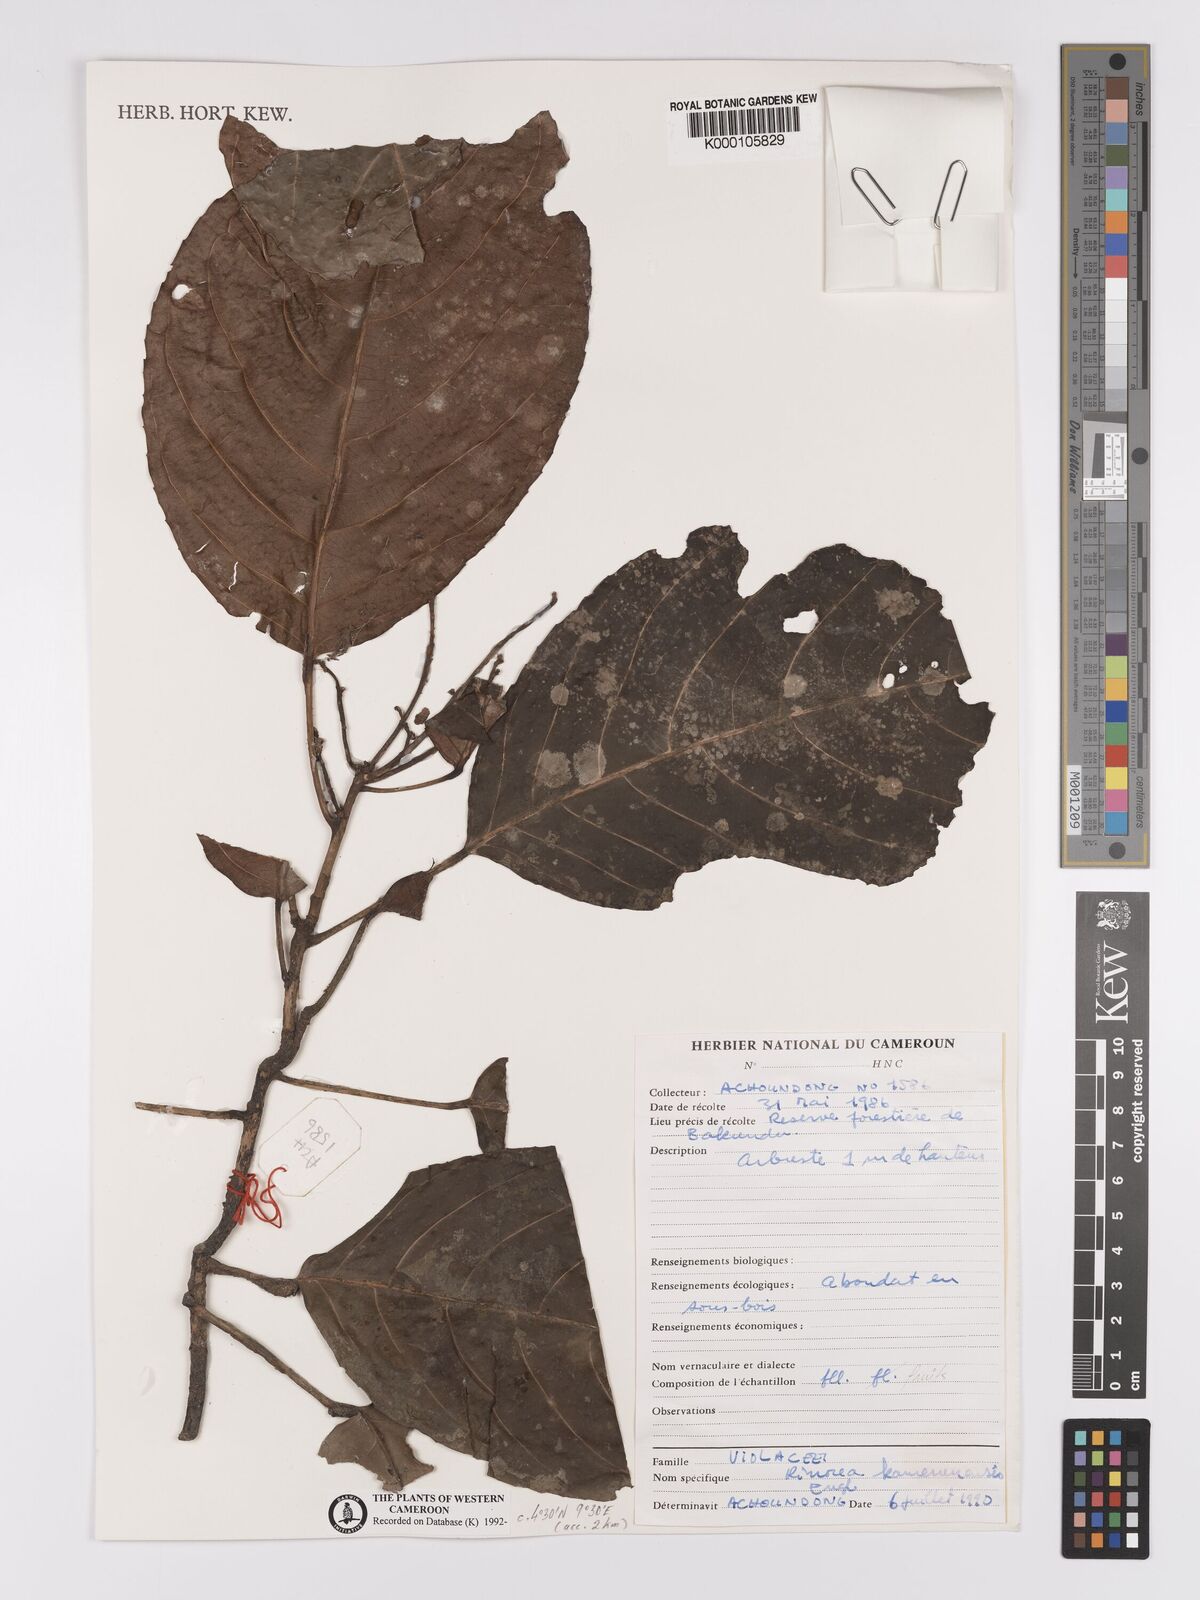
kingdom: Plantae
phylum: Tracheophyta
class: Magnoliopsida
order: Malpighiales
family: Violaceae
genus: Rinorea
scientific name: Rinorea kamerunensis
